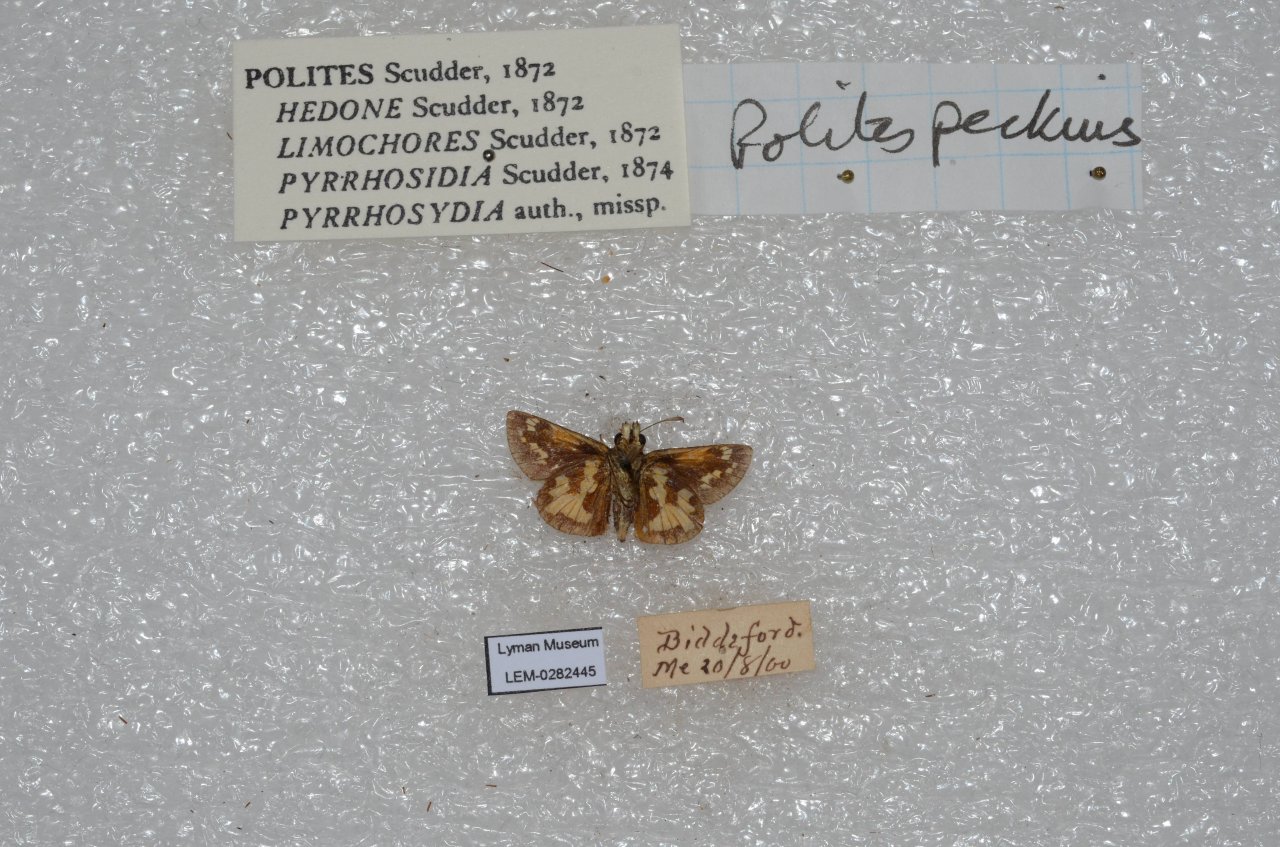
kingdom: Animalia
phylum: Arthropoda
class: Insecta
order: Lepidoptera
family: Hesperiidae
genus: Polites
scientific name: Polites coras
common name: Peck's Skipper
